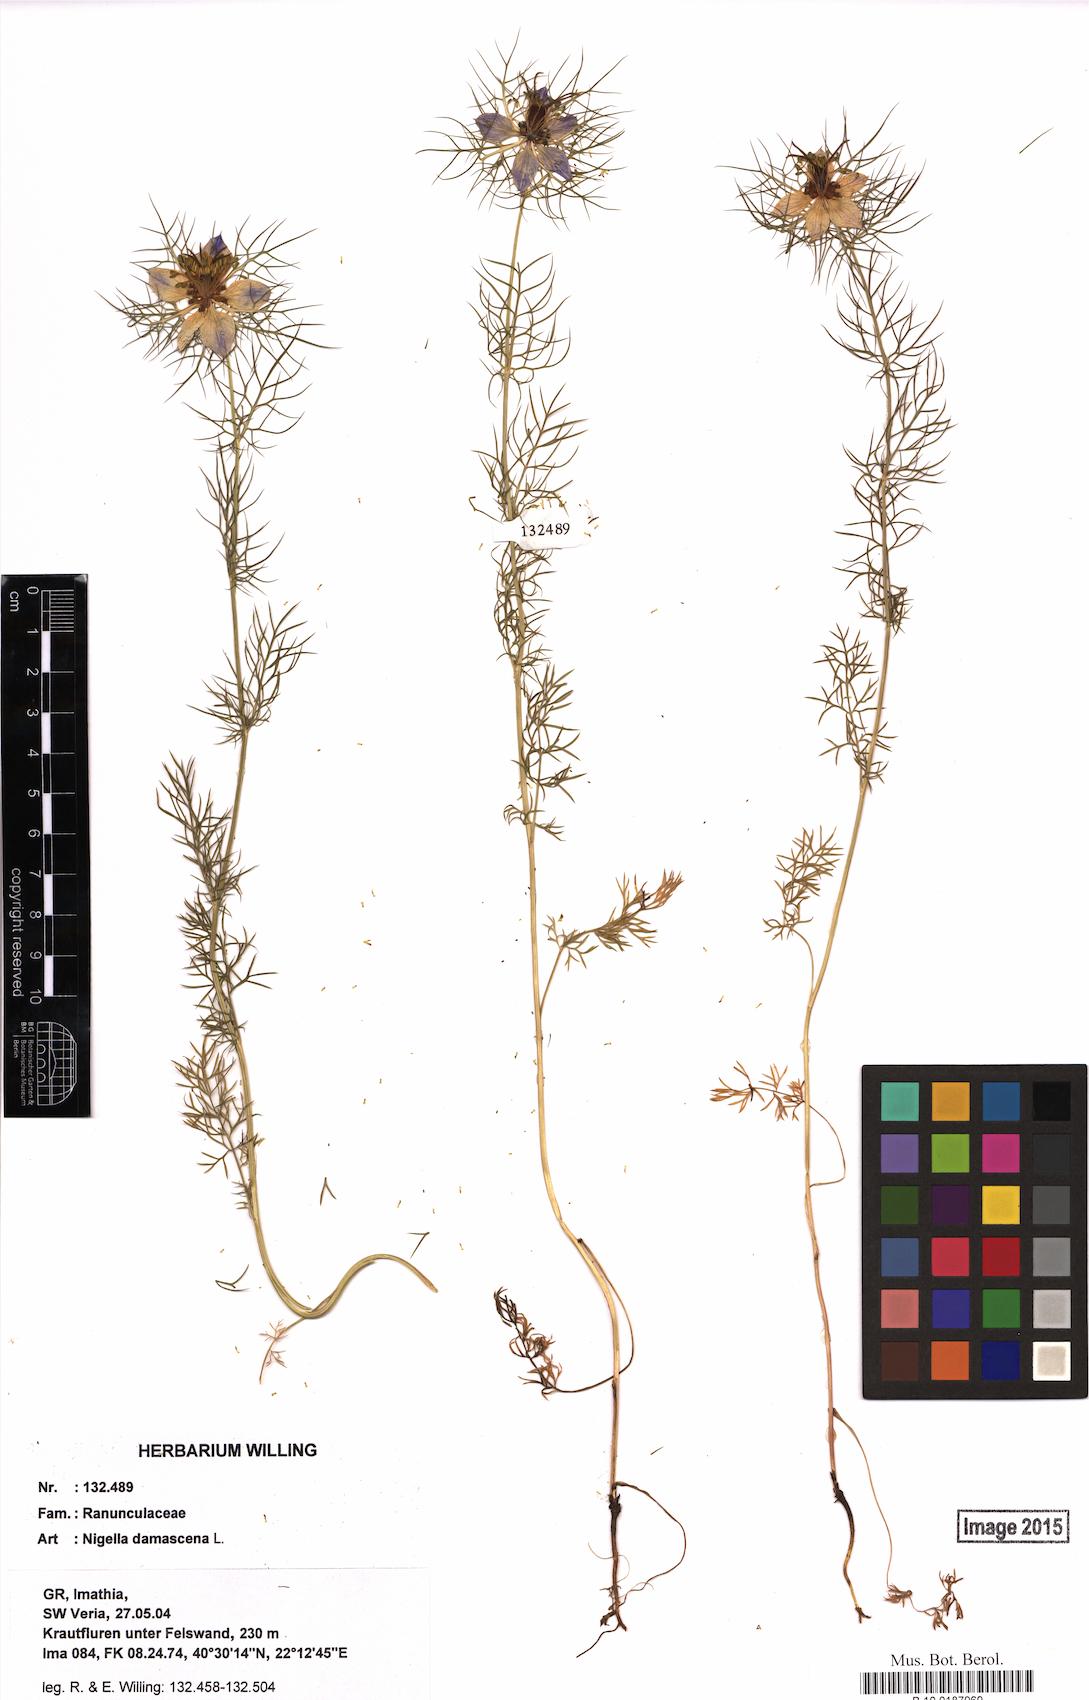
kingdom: Plantae
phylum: Tracheophyta
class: Magnoliopsida
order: Ranunculales
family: Ranunculaceae
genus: Nigella
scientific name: Nigella damascena
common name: Love-in-a-mist
